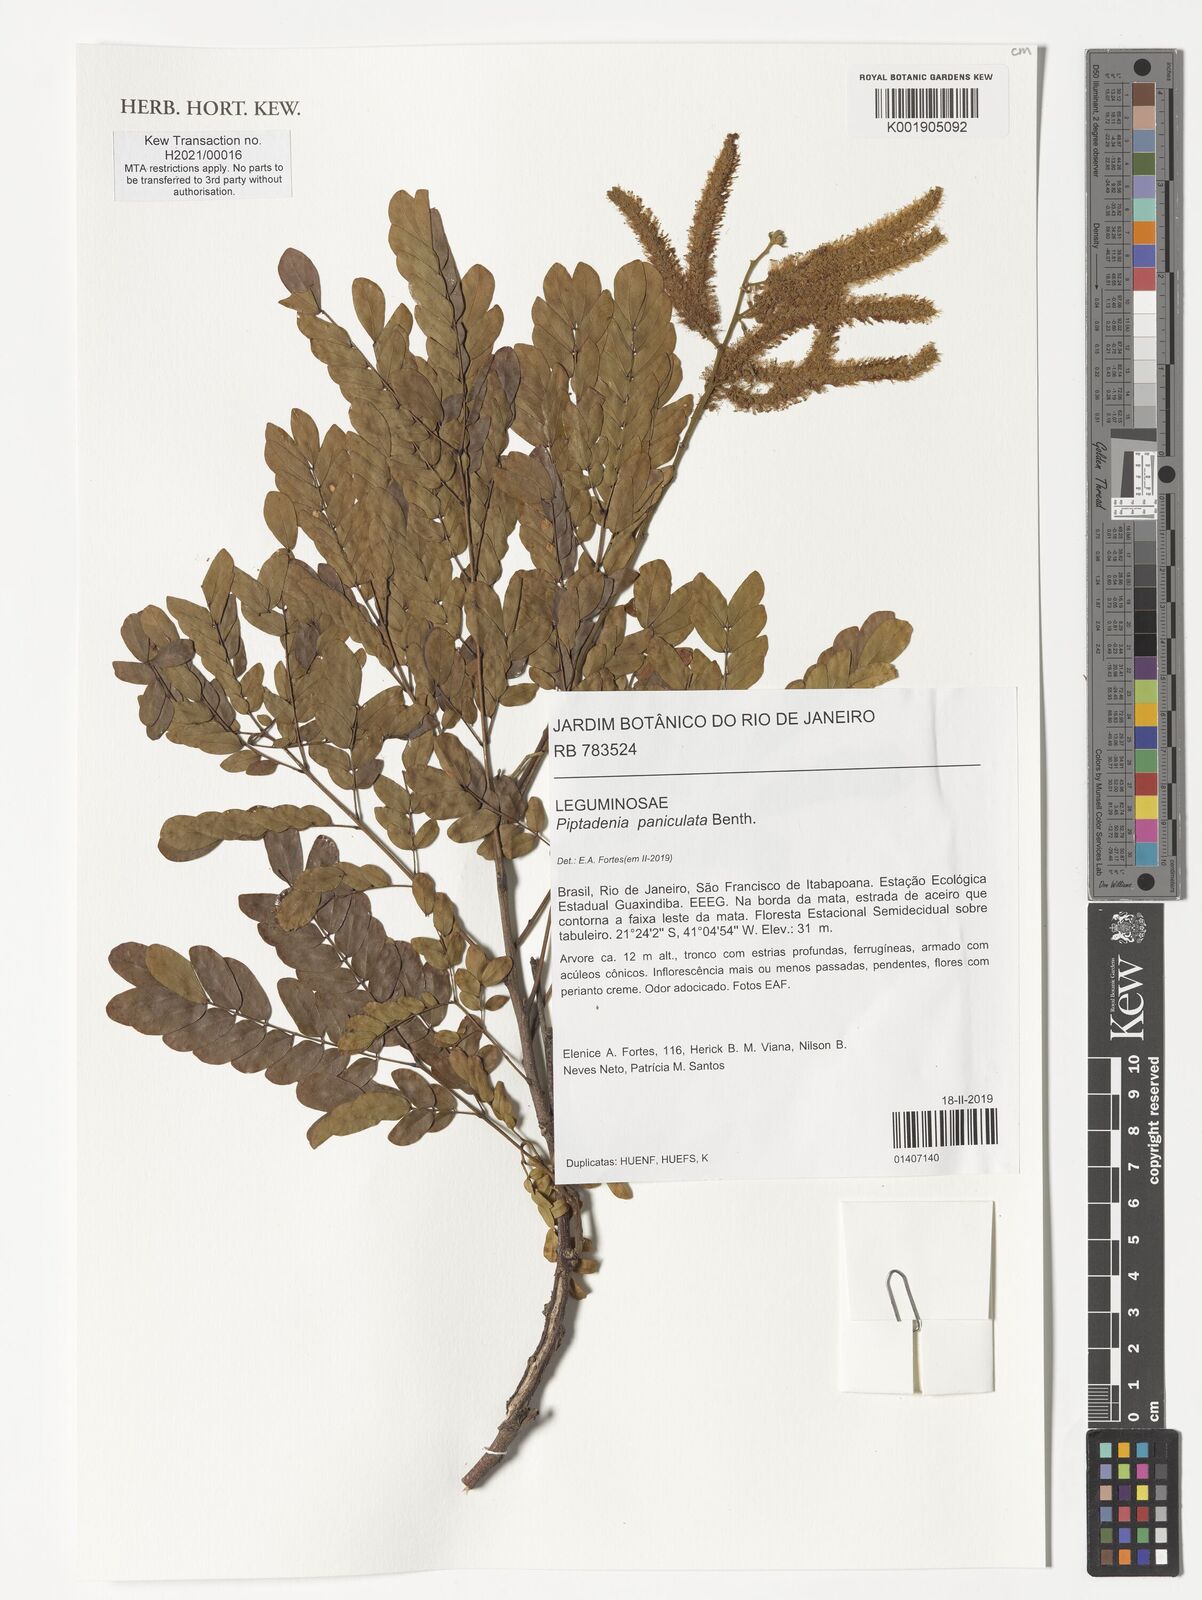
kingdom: Plantae
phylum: Tracheophyta
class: Magnoliopsida
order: Fabales
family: Fabaceae
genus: Piptadenia
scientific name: Piptadenia paniculata
